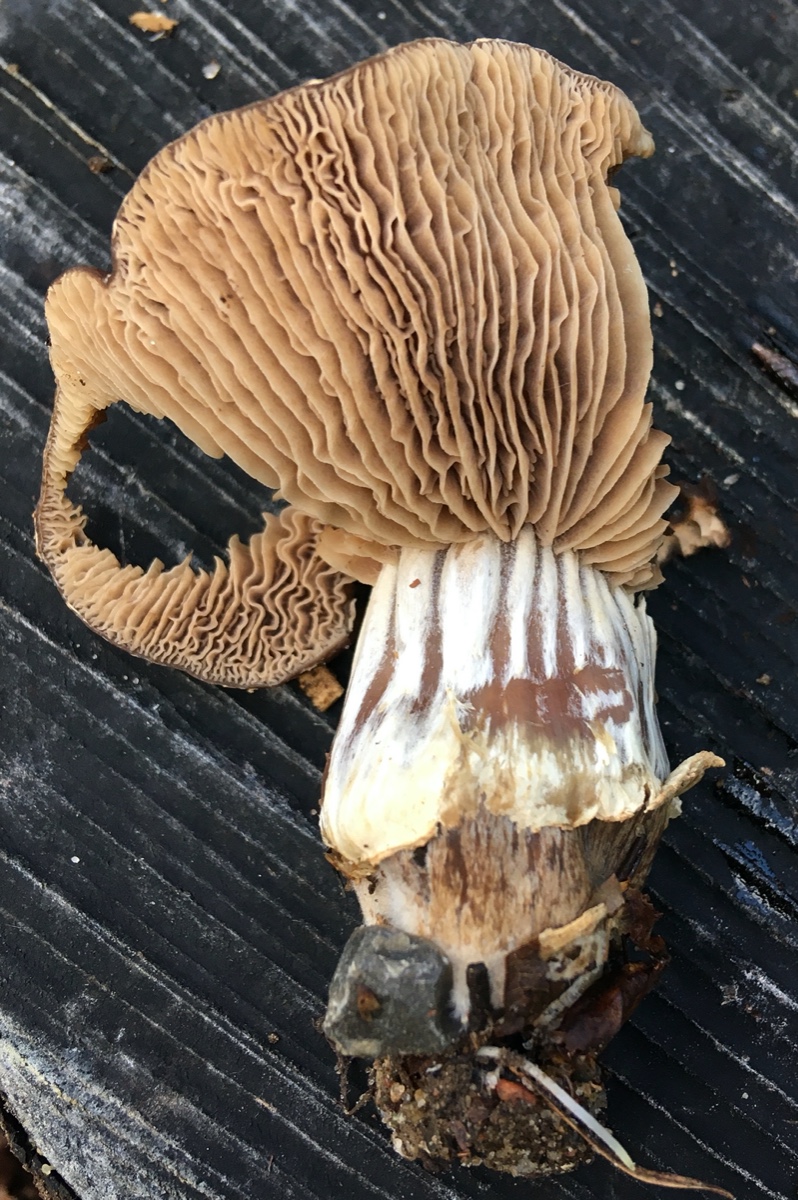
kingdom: Fungi
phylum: Basidiomycota
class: Agaricomycetes
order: Agaricales
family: Tubariaceae
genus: Cyclocybe
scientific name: Cyclocybe erebia
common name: mørk agerhat
